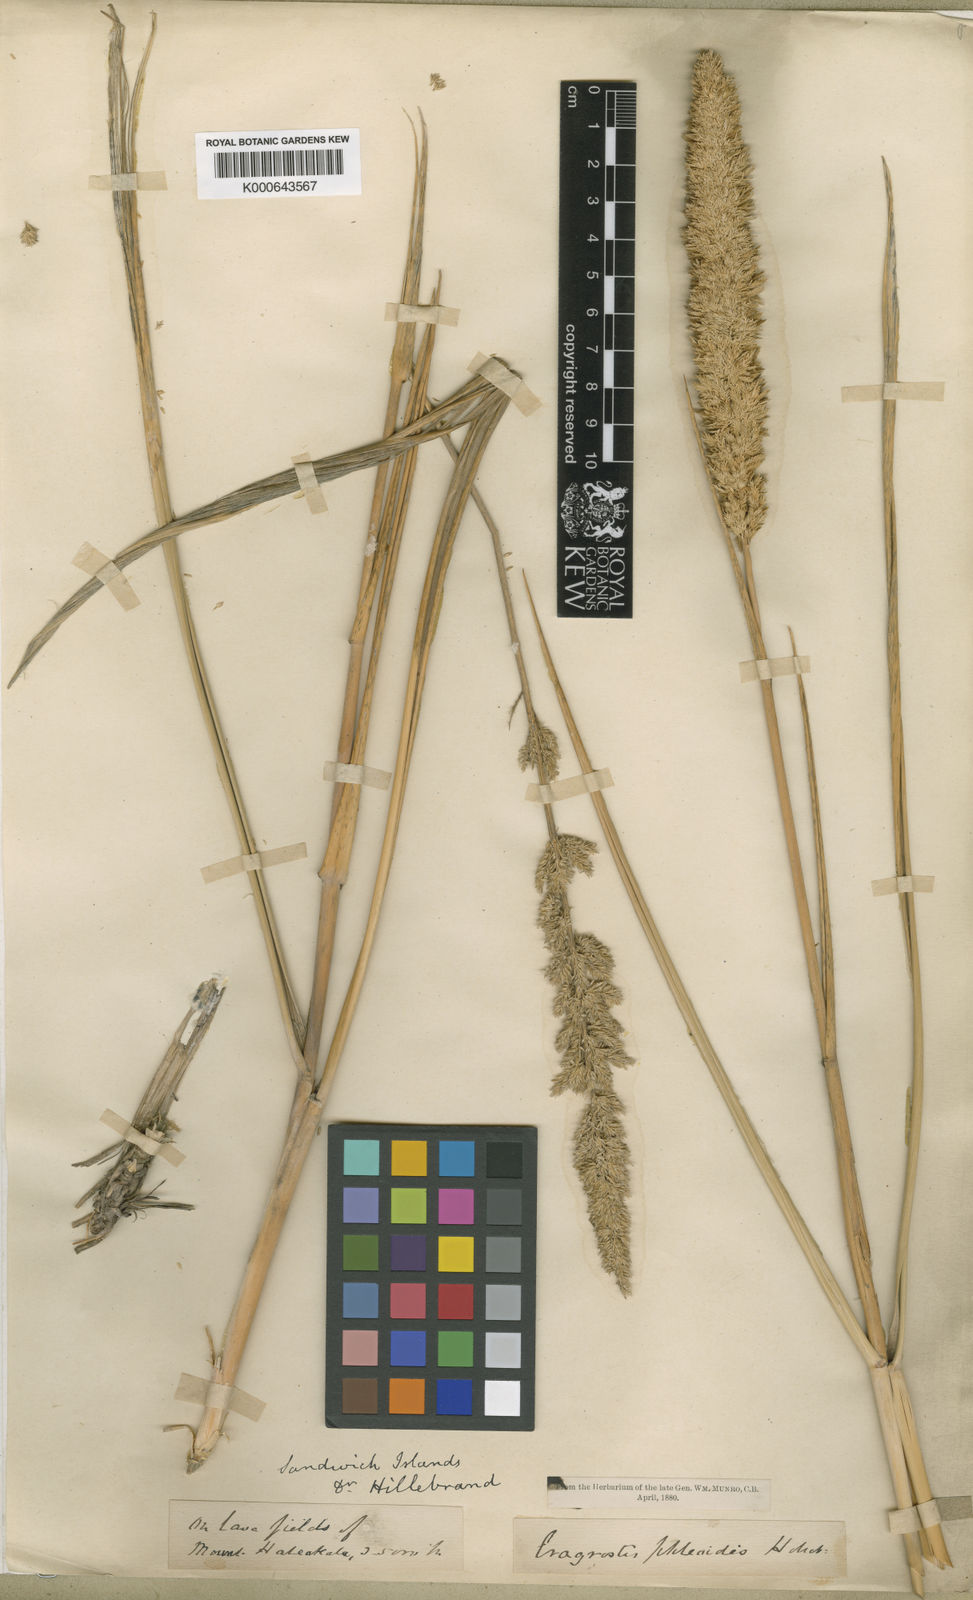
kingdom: Plantae
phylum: Tracheophyta
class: Liliopsida
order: Poales
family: Poaceae
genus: Eragrostis
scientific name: Eragrostis
